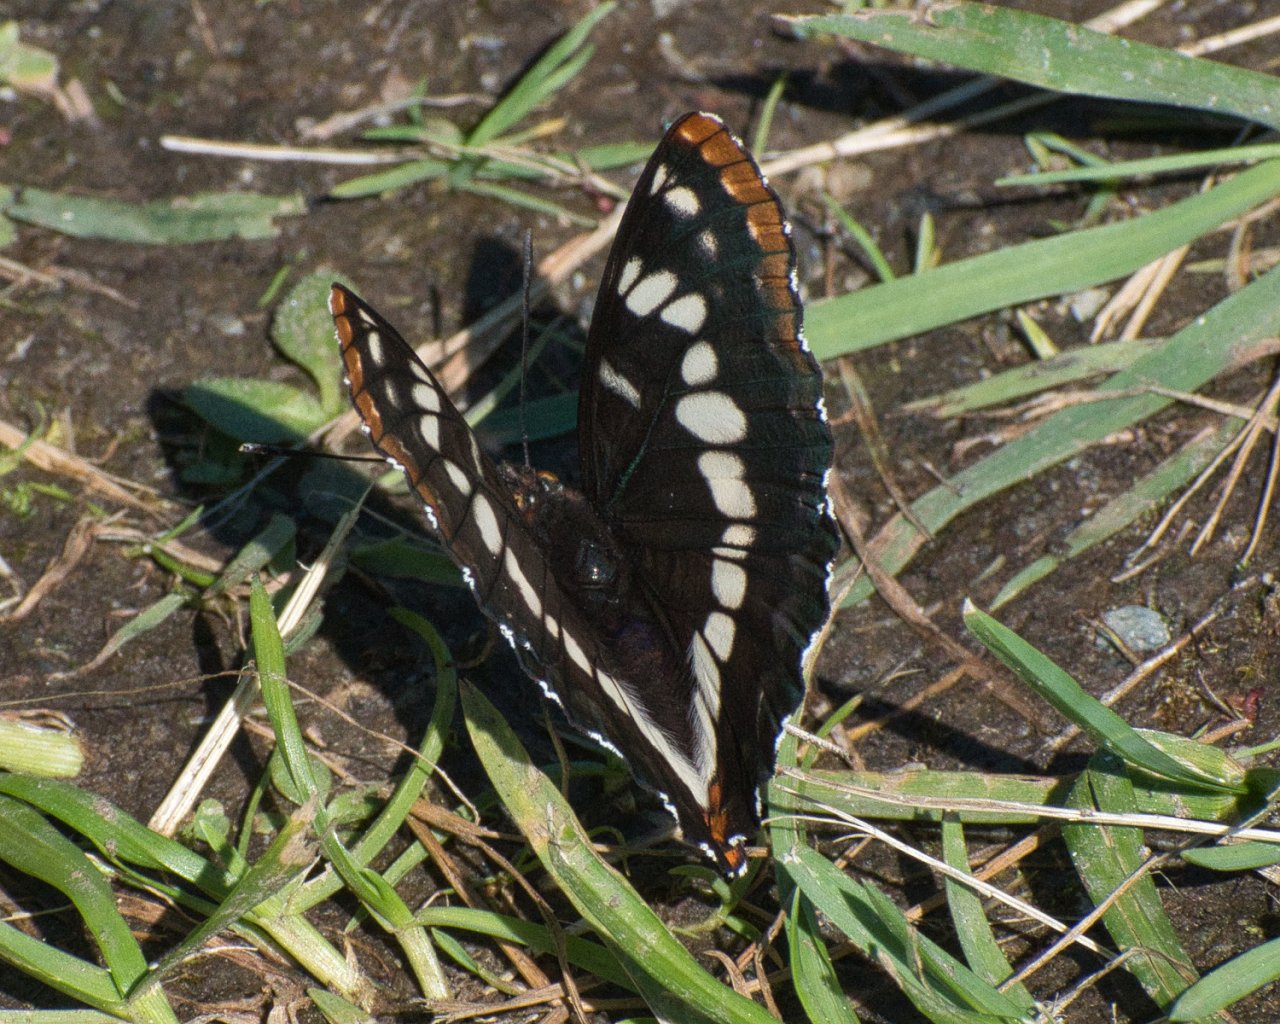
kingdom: Animalia
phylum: Arthropoda
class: Insecta
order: Lepidoptera
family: Nymphalidae
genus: Limenitis
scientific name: Limenitis lorquini
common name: Lorquin's Admiral
